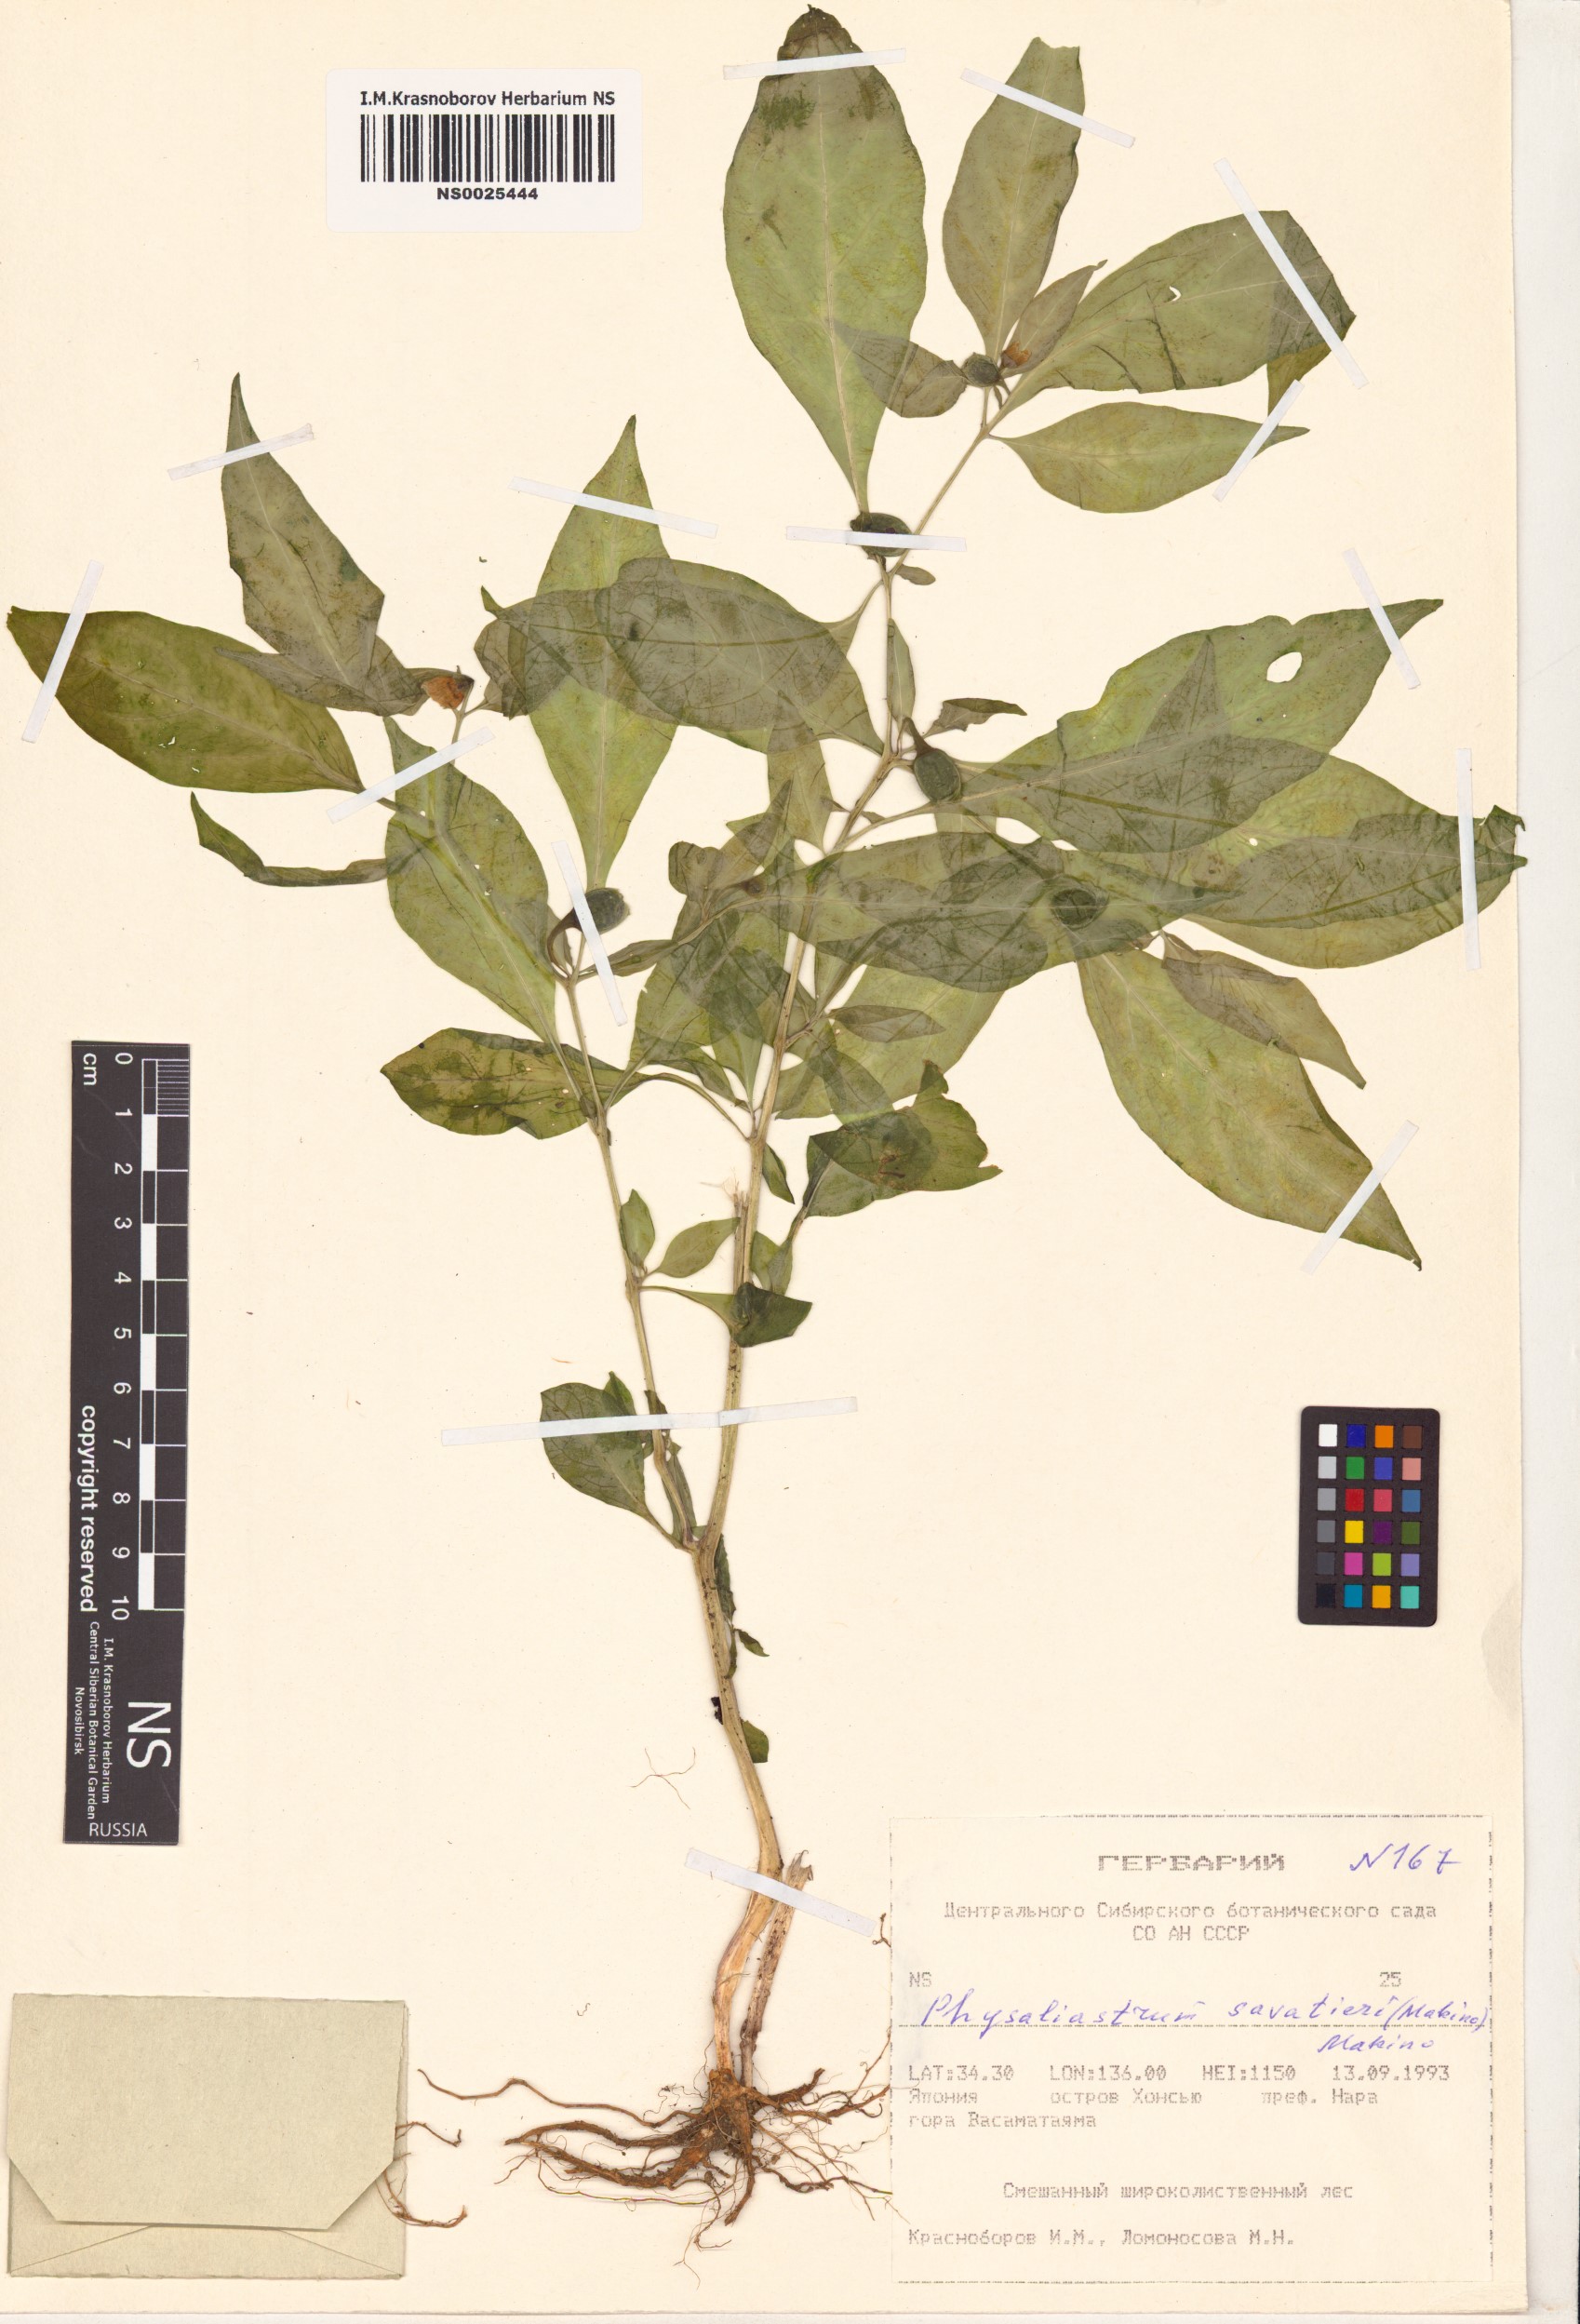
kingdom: Plantae
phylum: Tracheophyta
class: Magnoliopsida
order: Solanales
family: Solanaceae
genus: Physaliastrum
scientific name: Physaliastrum japonicum
